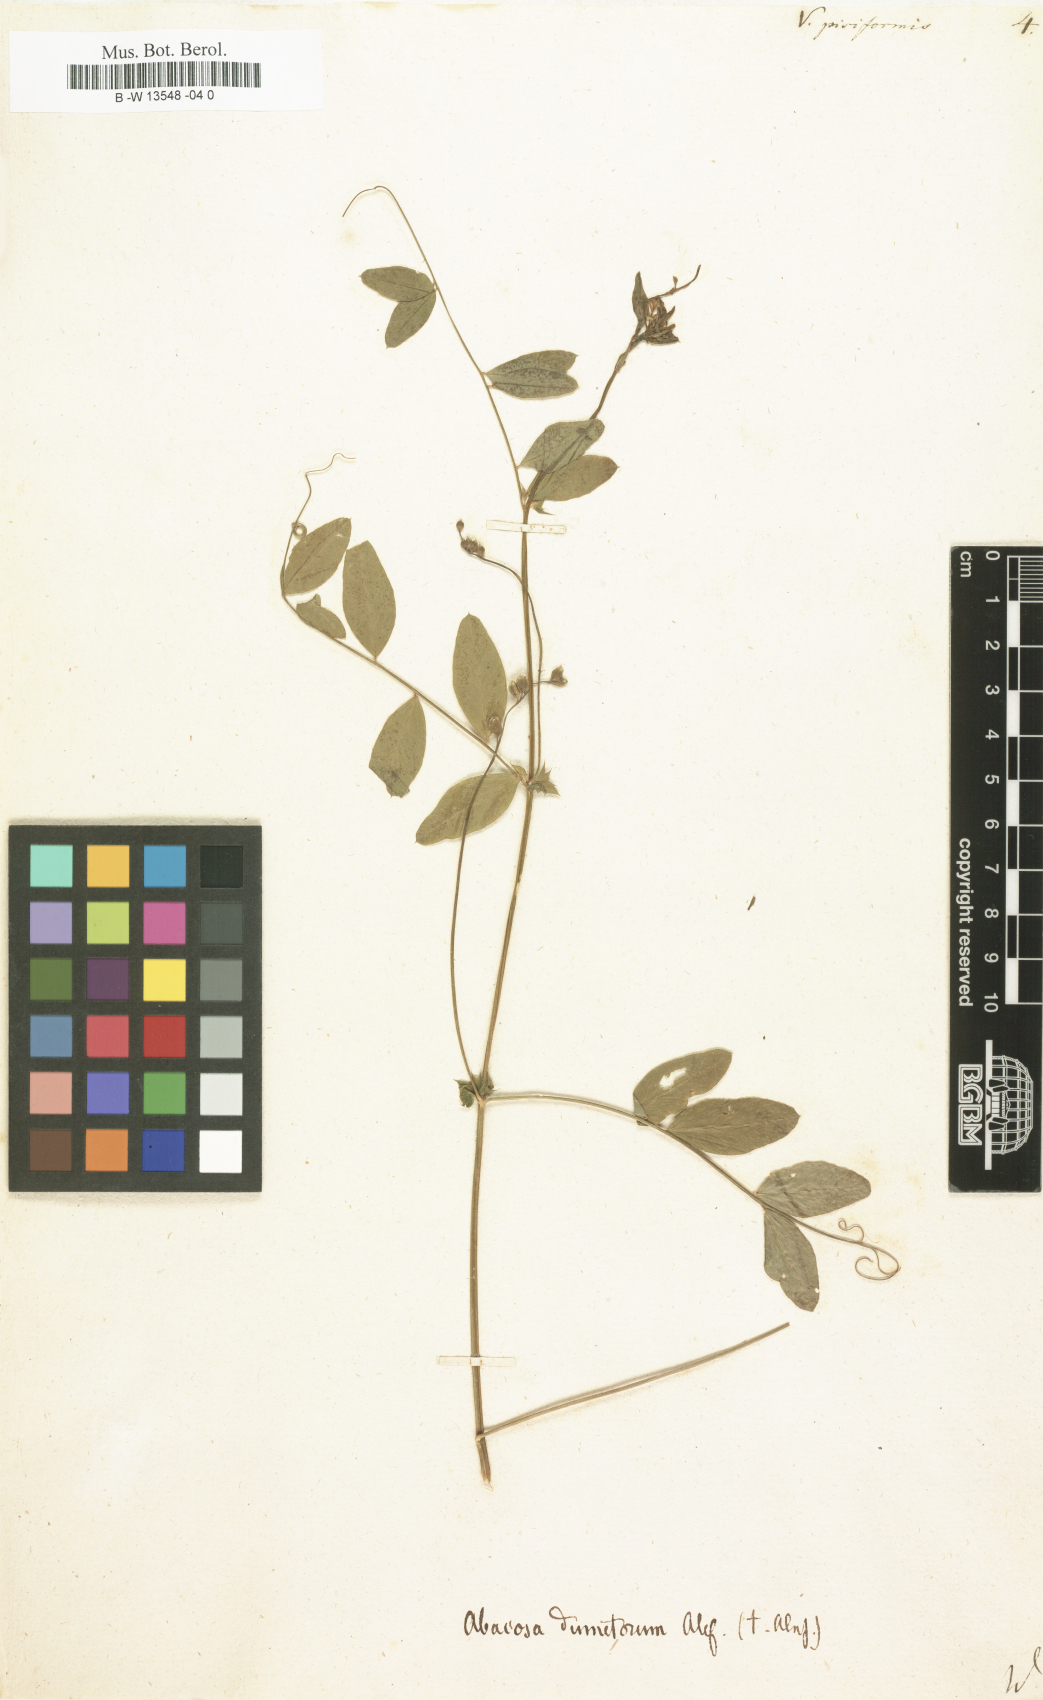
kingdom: Plantae
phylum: Tracheophyta
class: Magnoliopsida
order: Fabales
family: Fabaceae
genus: Vicia
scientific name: Vicia pisiformis
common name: Pale-flower vetch
